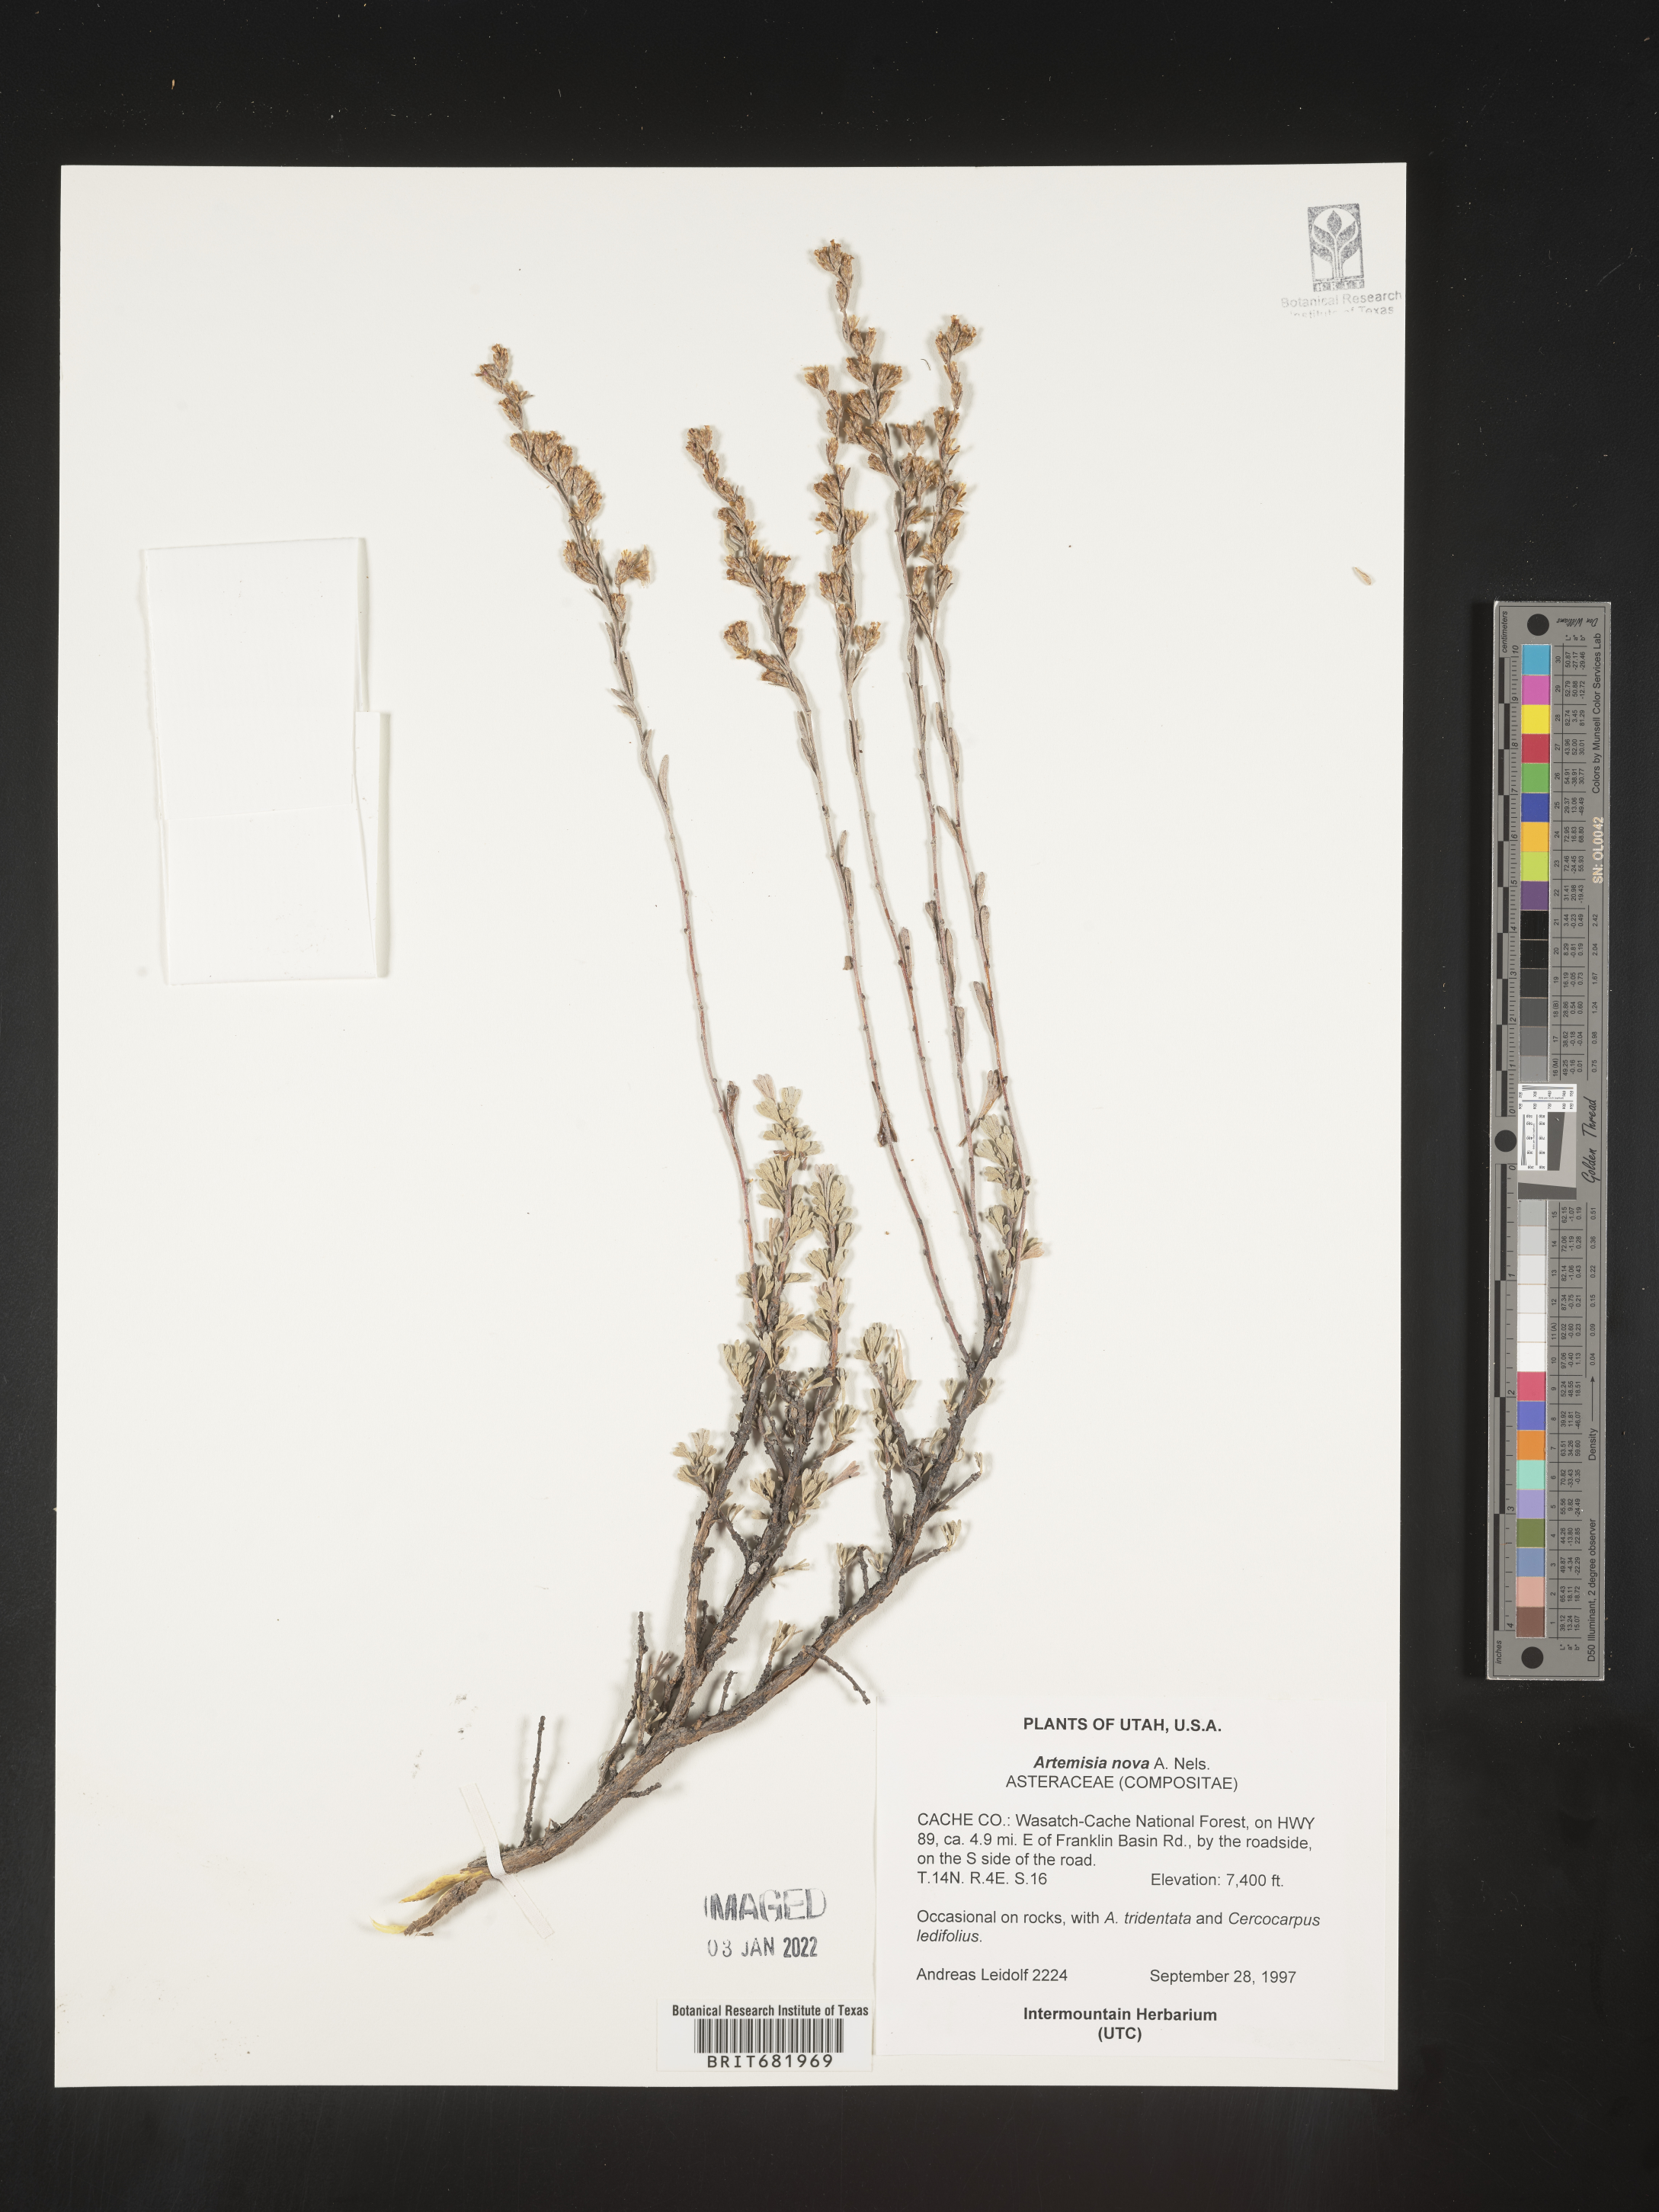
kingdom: Plantae
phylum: Tracheophyta
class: Magnoliopsida
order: Asterales
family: Asteraceae
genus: Artemisia
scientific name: Artemisia nova
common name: Black-sage
